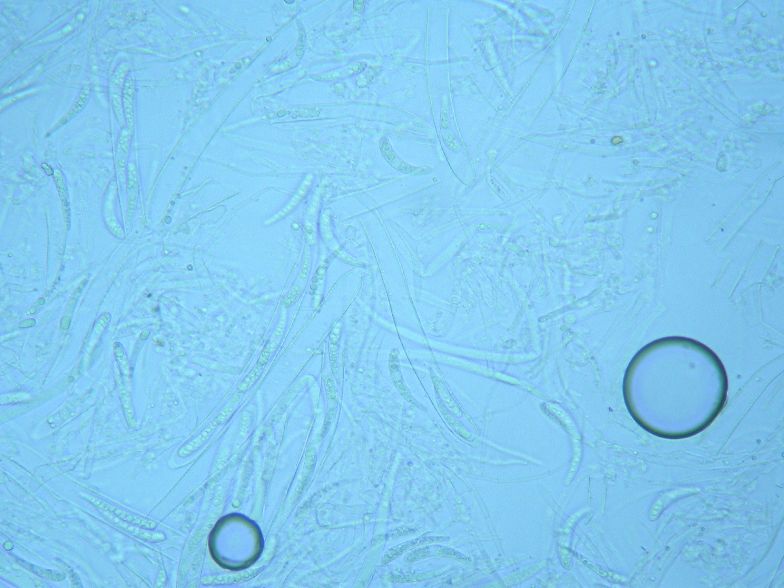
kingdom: Fungi
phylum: Ascomycota
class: Leotiomycetes
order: Helotiales
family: Helotiaceae
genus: Hymenoscyphus
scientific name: Hymenoscyphus serotinus
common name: krumsporet stilkskive
